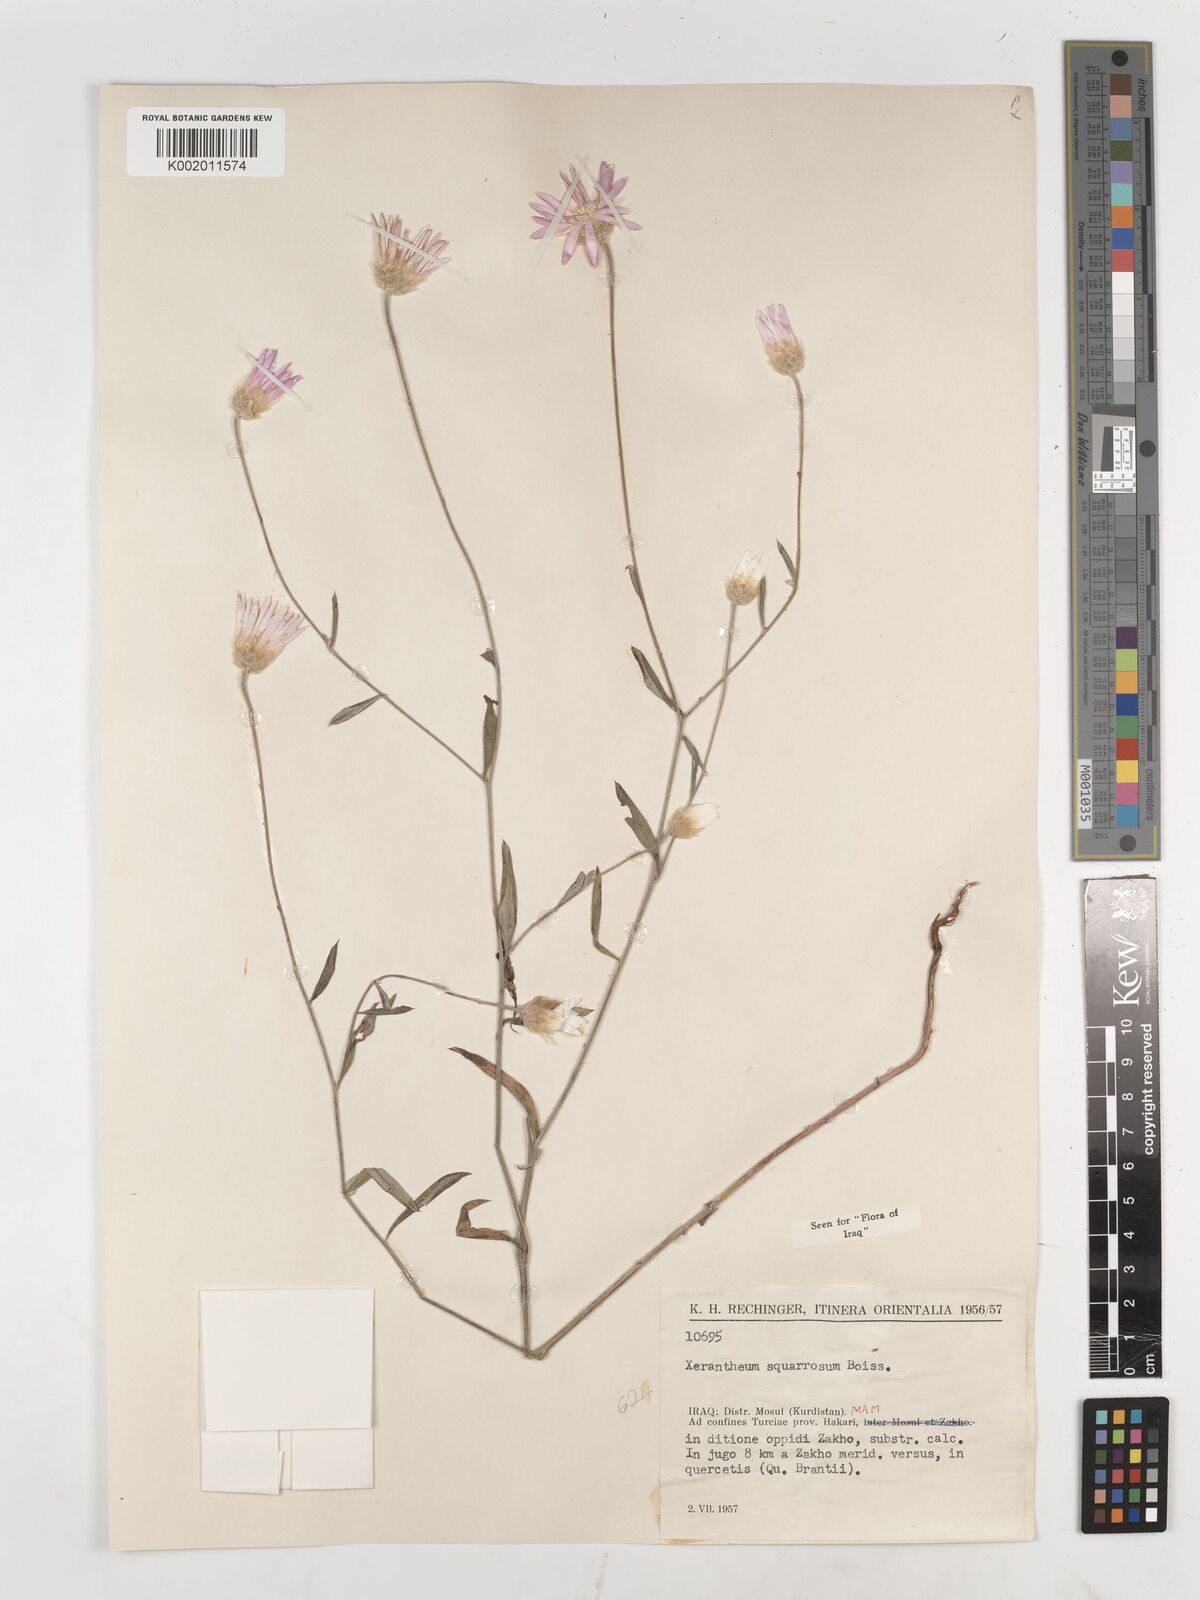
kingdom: Plantae
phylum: Tracheophyta
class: Magnoliopsida
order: Asterales
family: Asteraceae
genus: Xeranthemum
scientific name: Xeranthemum annuum
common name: Immortelle
